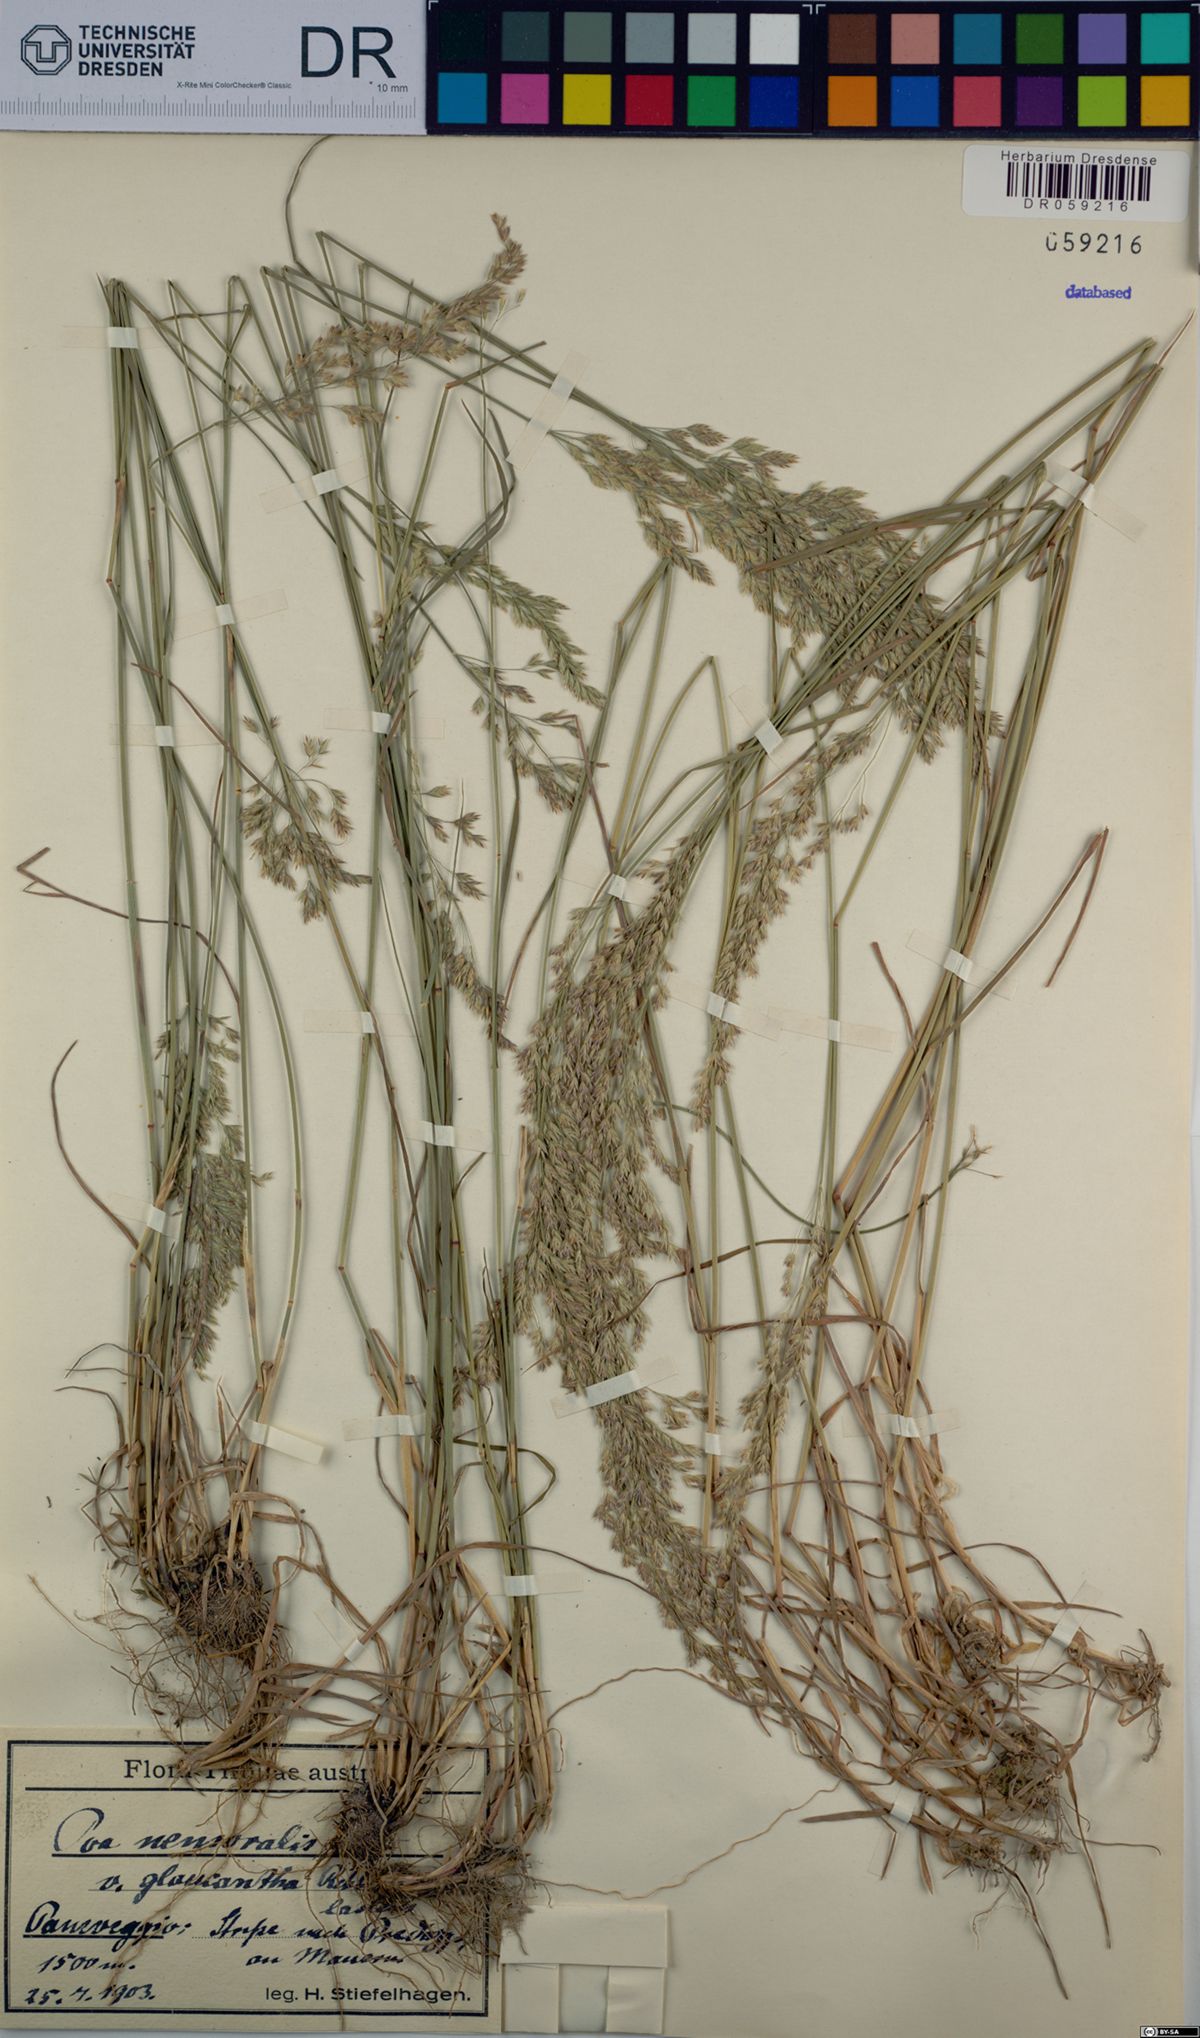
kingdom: Plantae
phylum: Tracheophyta
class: Liliopsida
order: Poales
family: Poaceae
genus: Poa
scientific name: Poa nemoralis
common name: Wood bluegrass
